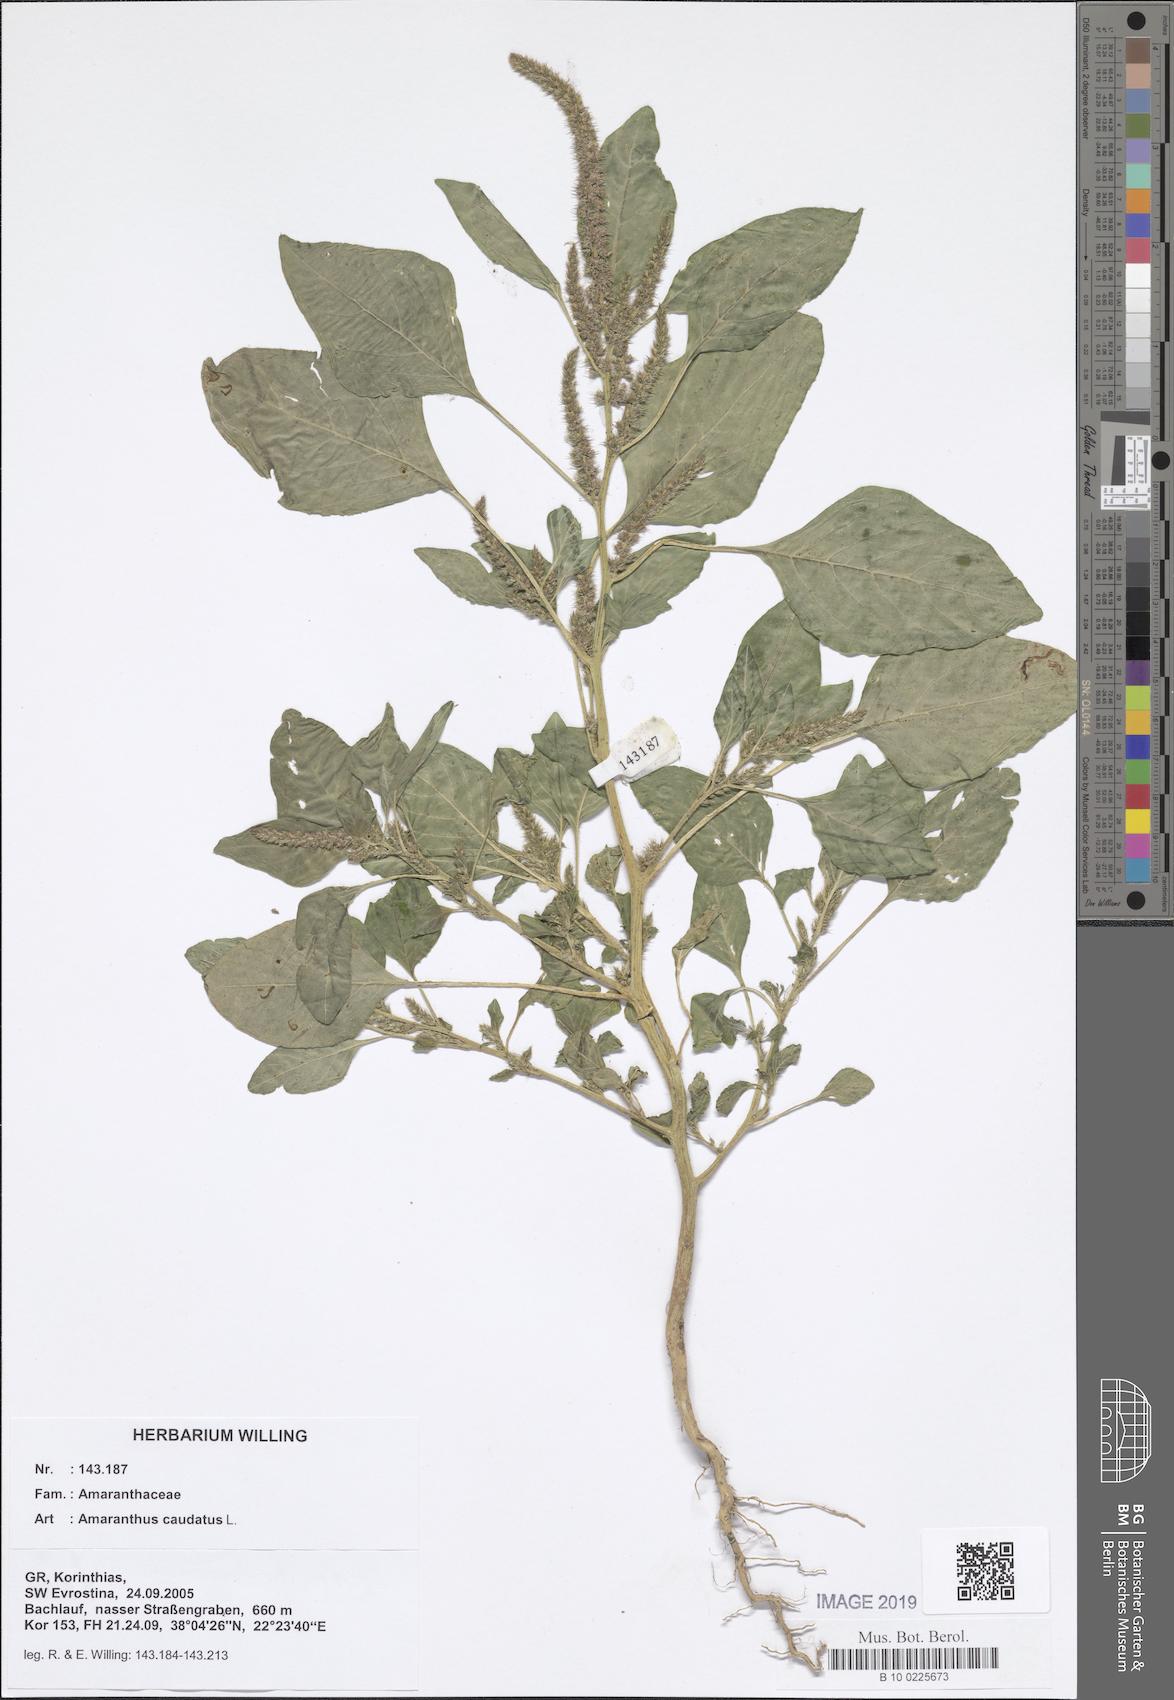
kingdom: Plantae
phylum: Tracheophyta
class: Magnoliopsida
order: Caryophyllales
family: Amaranthaceae
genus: Amaranthus
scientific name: Amaranthus caudatus
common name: Love-lies-bleeding
